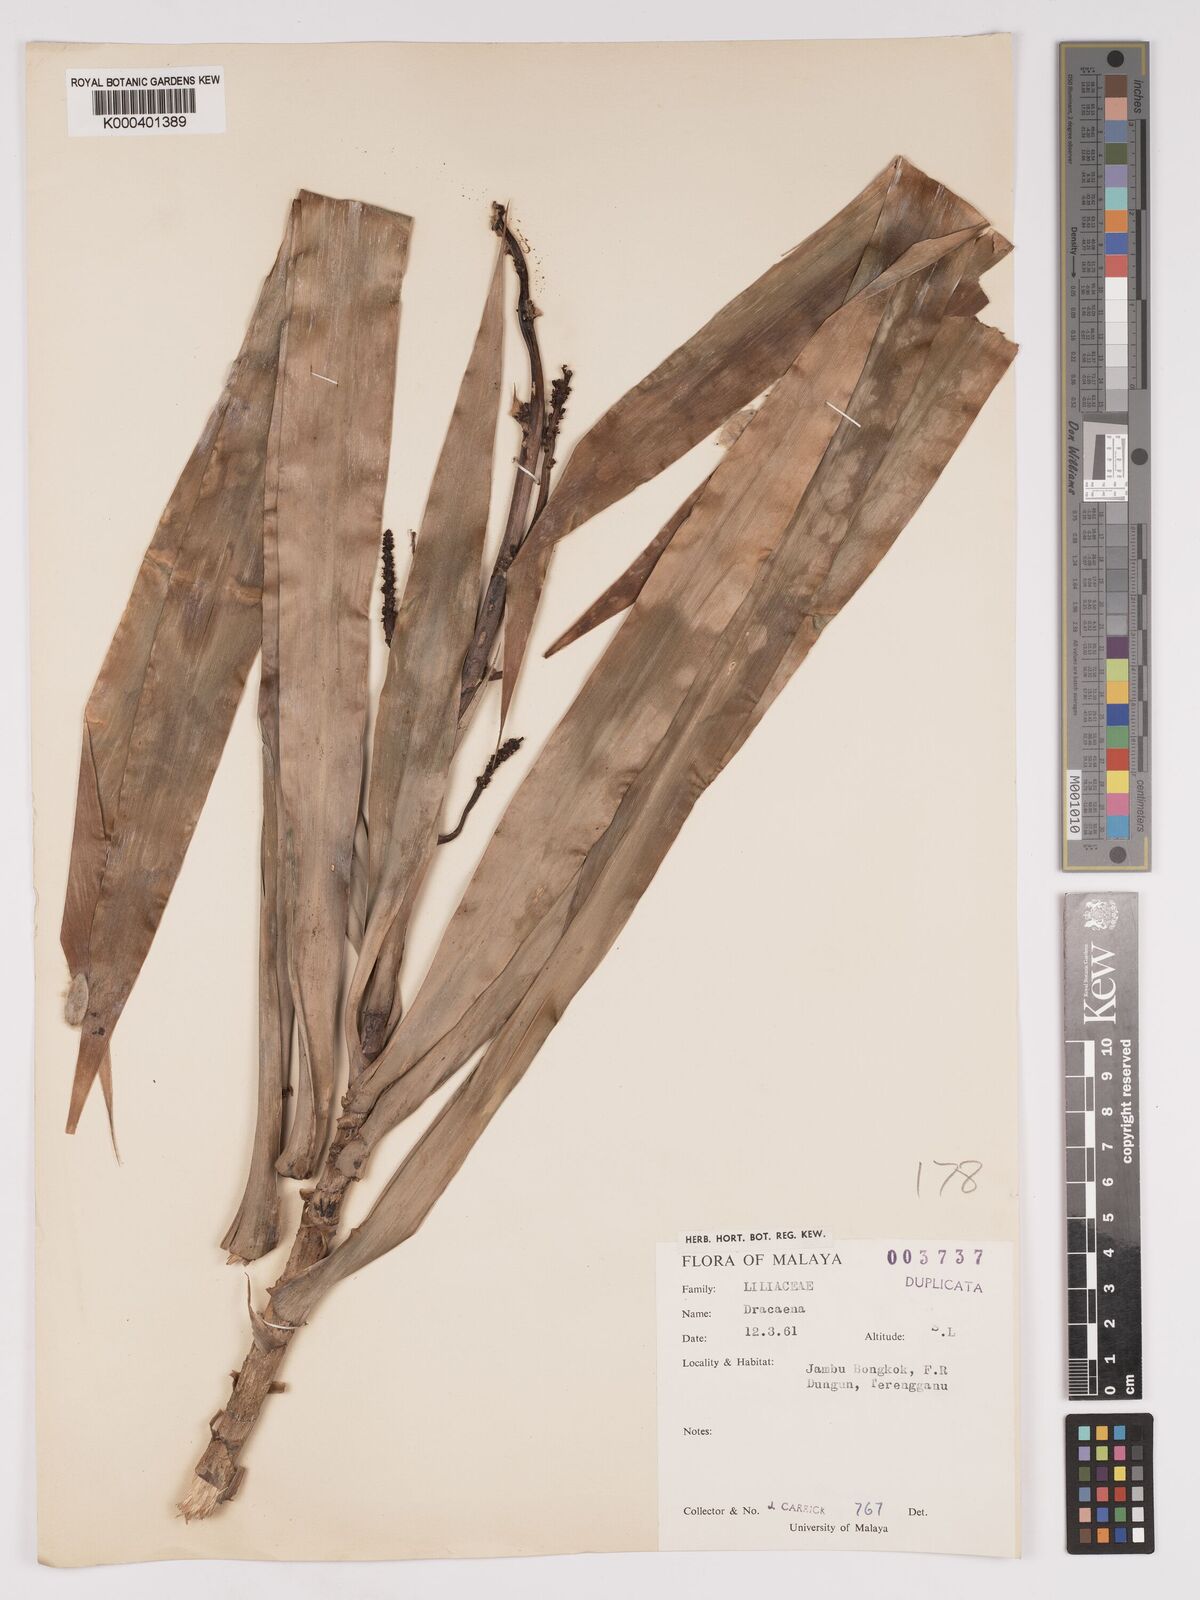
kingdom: Plantae
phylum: Tracheophyta
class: Liliopsida
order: Asparagales
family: Asparagaceae
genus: Dracaena
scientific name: Dracaena
